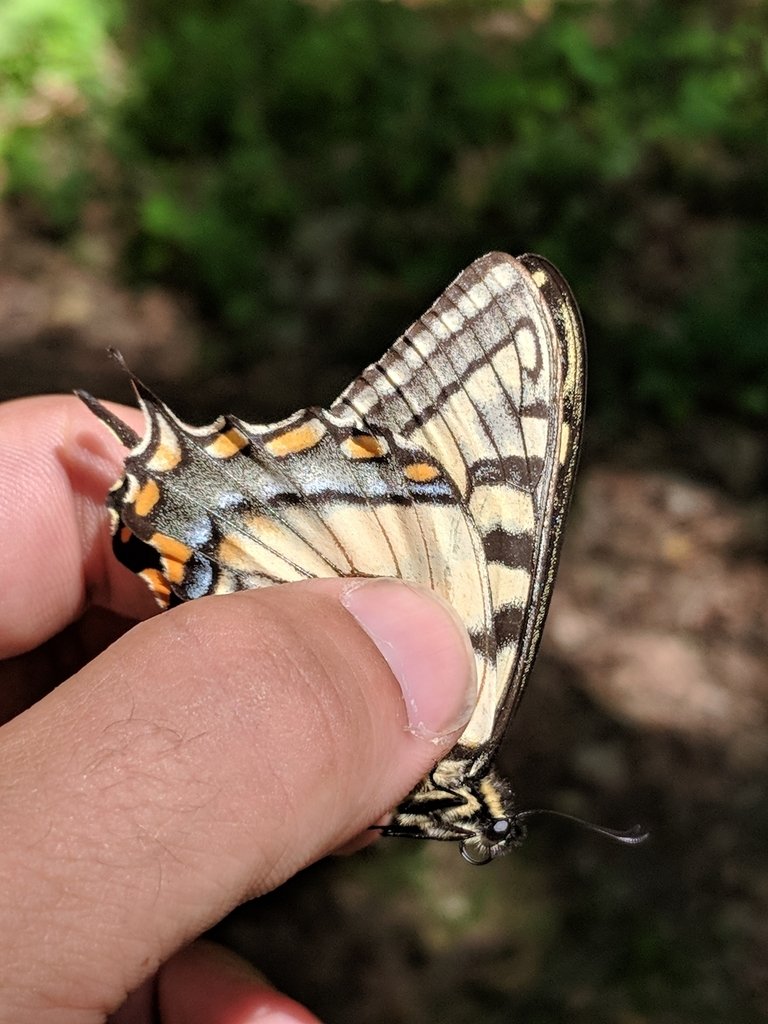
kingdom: Animalia
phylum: Arthropoda
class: Insecta
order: Lepidoptera
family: Papilionidae
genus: Pterourus
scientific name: Pterourus canadensis
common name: Canadian Tiger Swallowtail
